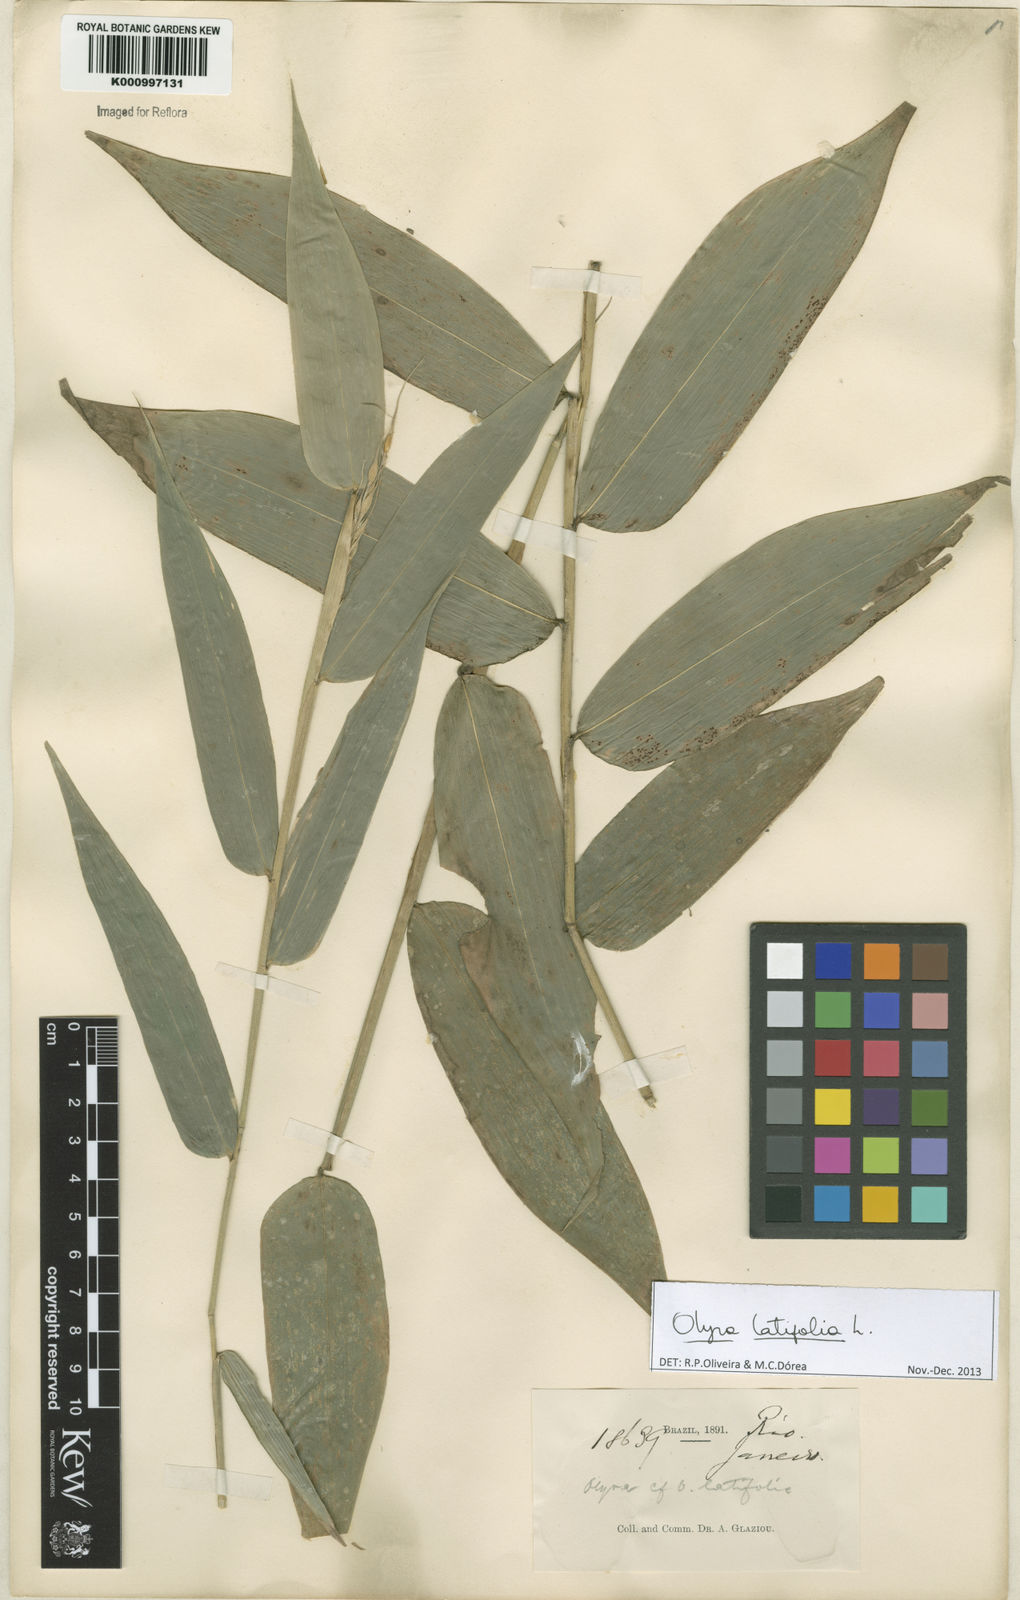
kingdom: Plantae
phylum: Tracheophyta
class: Liliopsida
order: Poales
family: Poaceae
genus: Olyra
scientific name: Olyra latifolia
